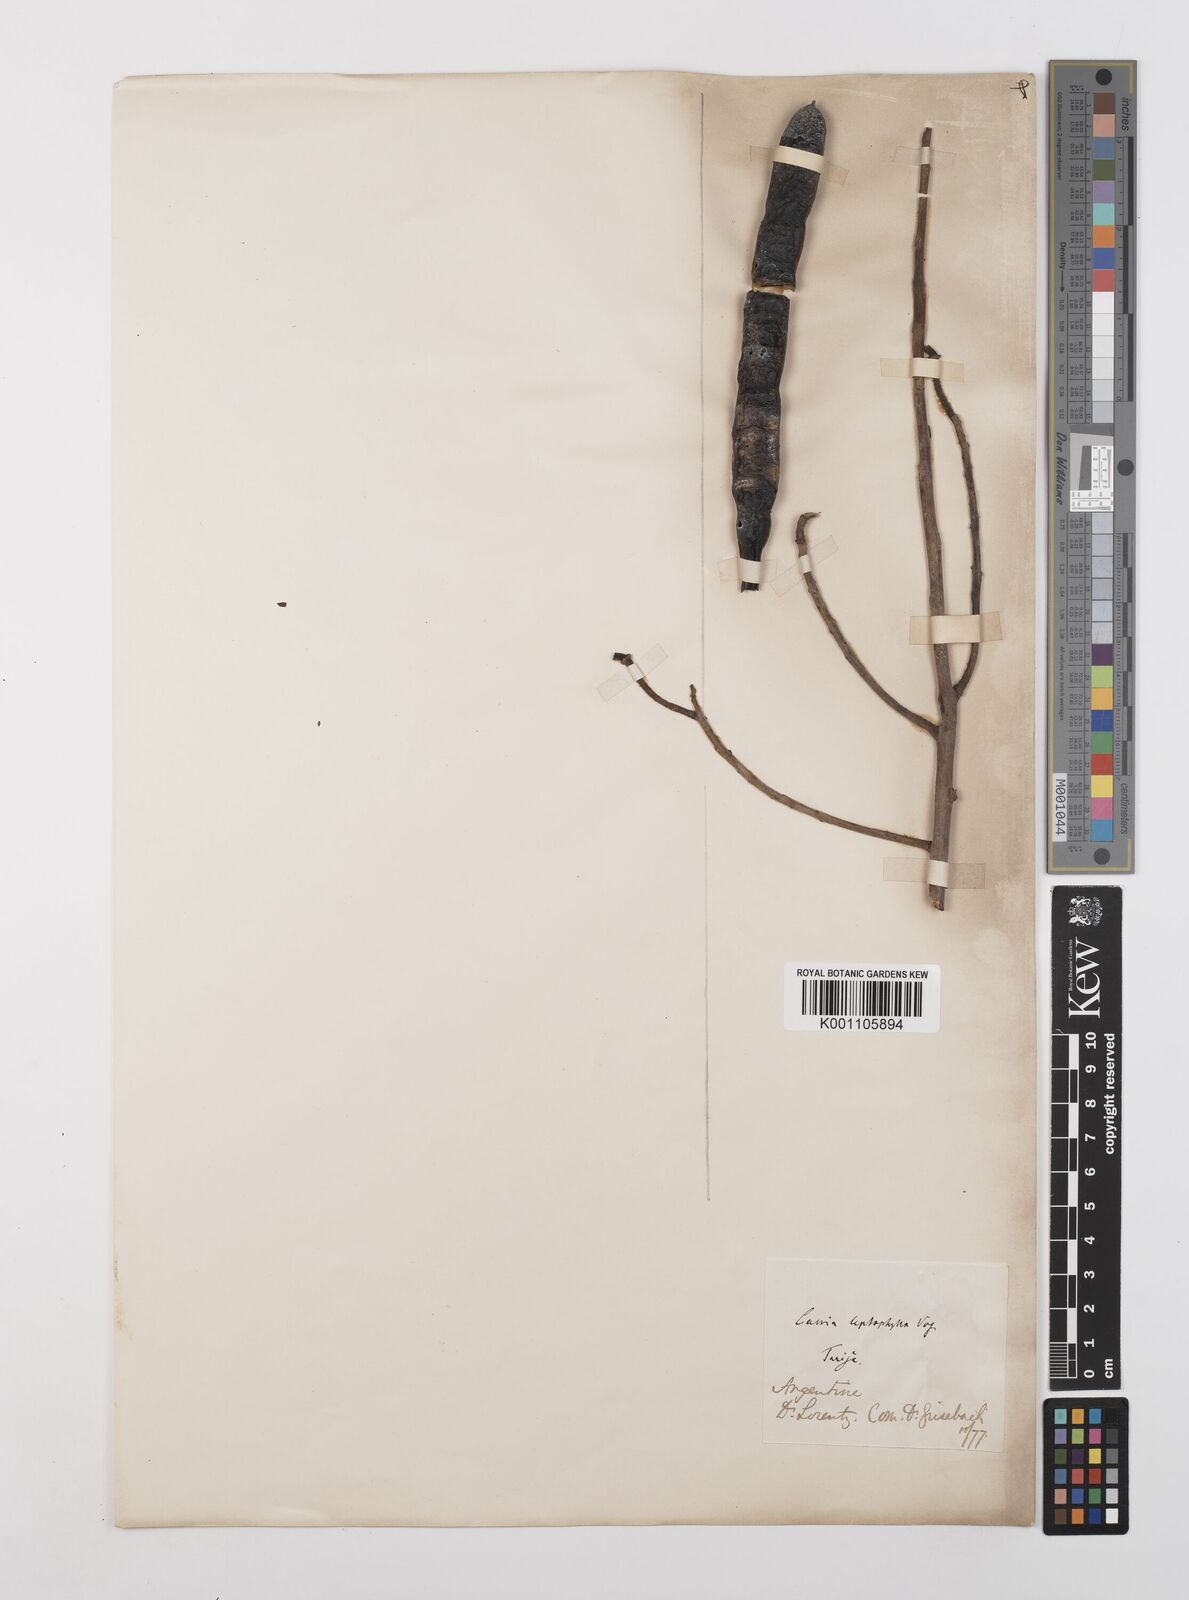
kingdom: Plantae
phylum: Tracheophyta
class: Magnoliopsida
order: Fabales
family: Fabaceae
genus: Cassia
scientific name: Cassia leptophylla
